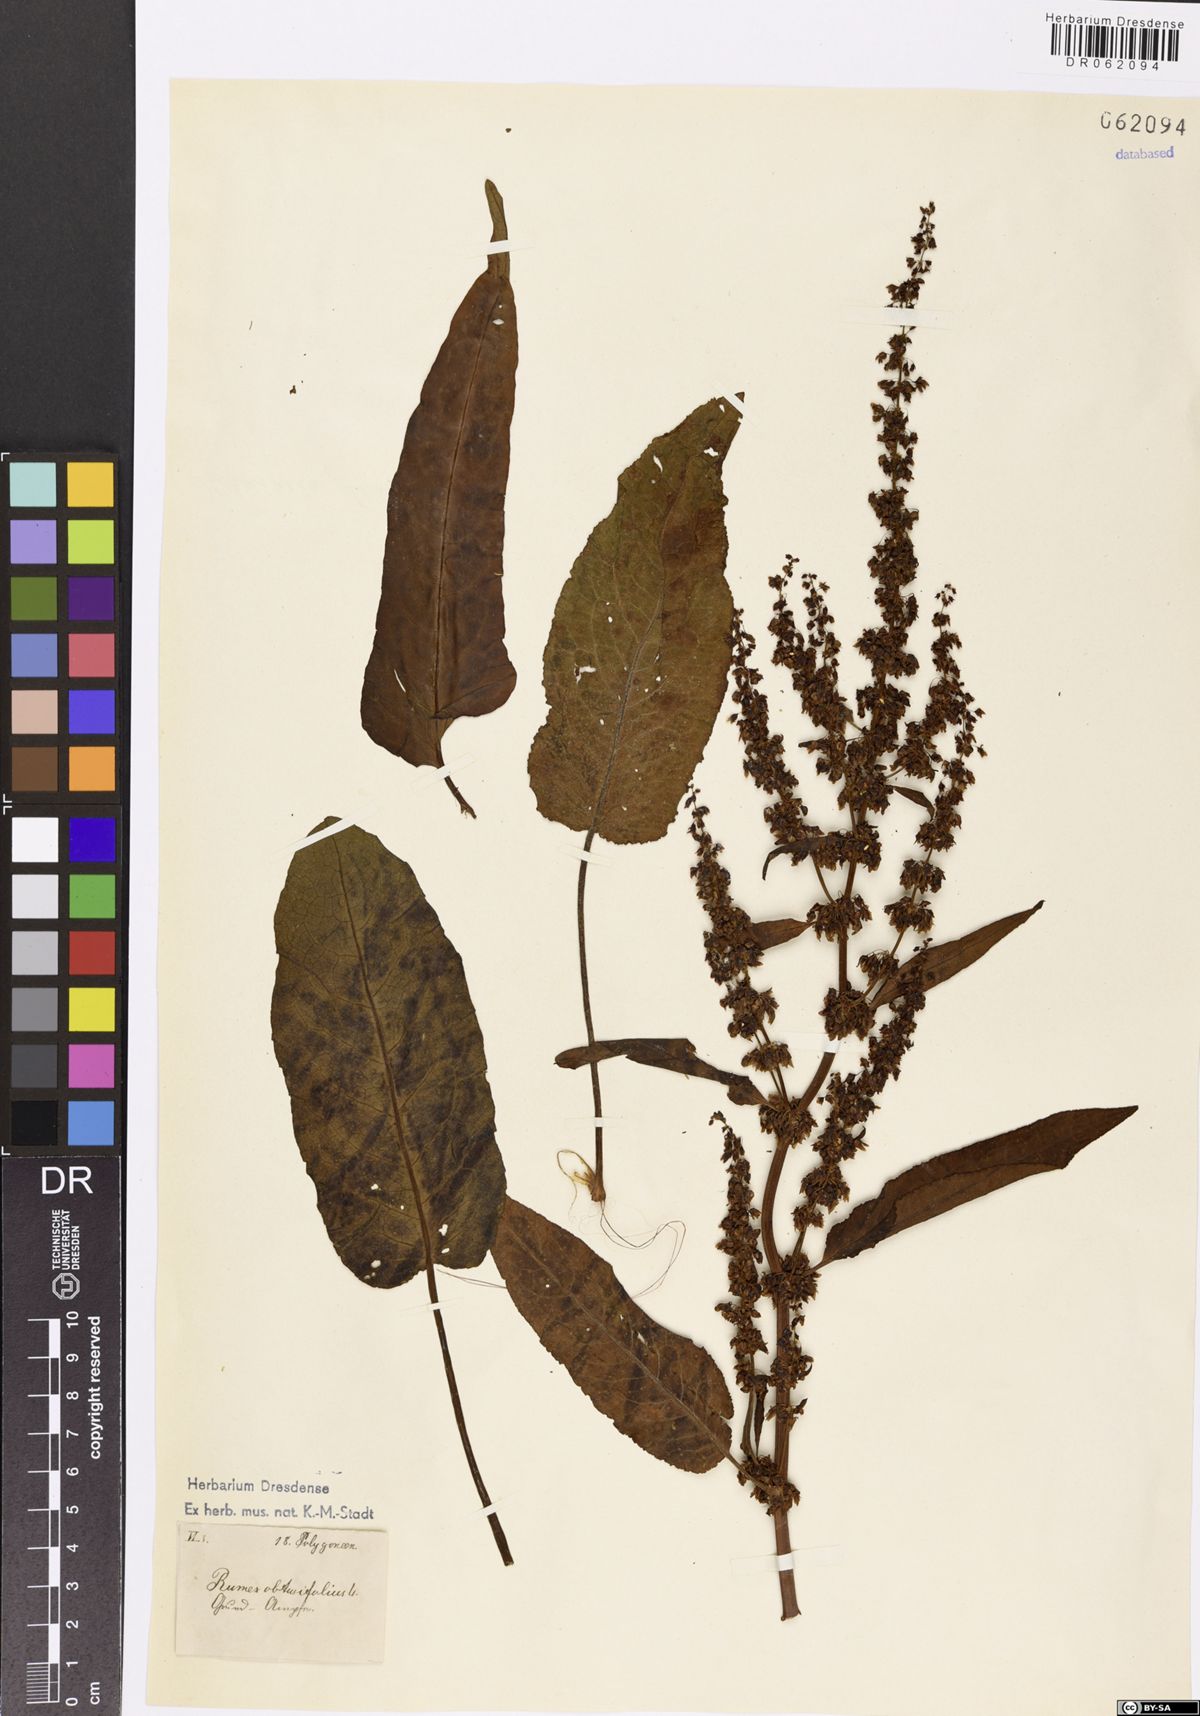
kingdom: Plantae
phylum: Tracheophyta
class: Magnoliopsida
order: Caryophyllales
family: Polygonaceae
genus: Rumex
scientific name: Rumex obtusifolius
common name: Bitter dock
